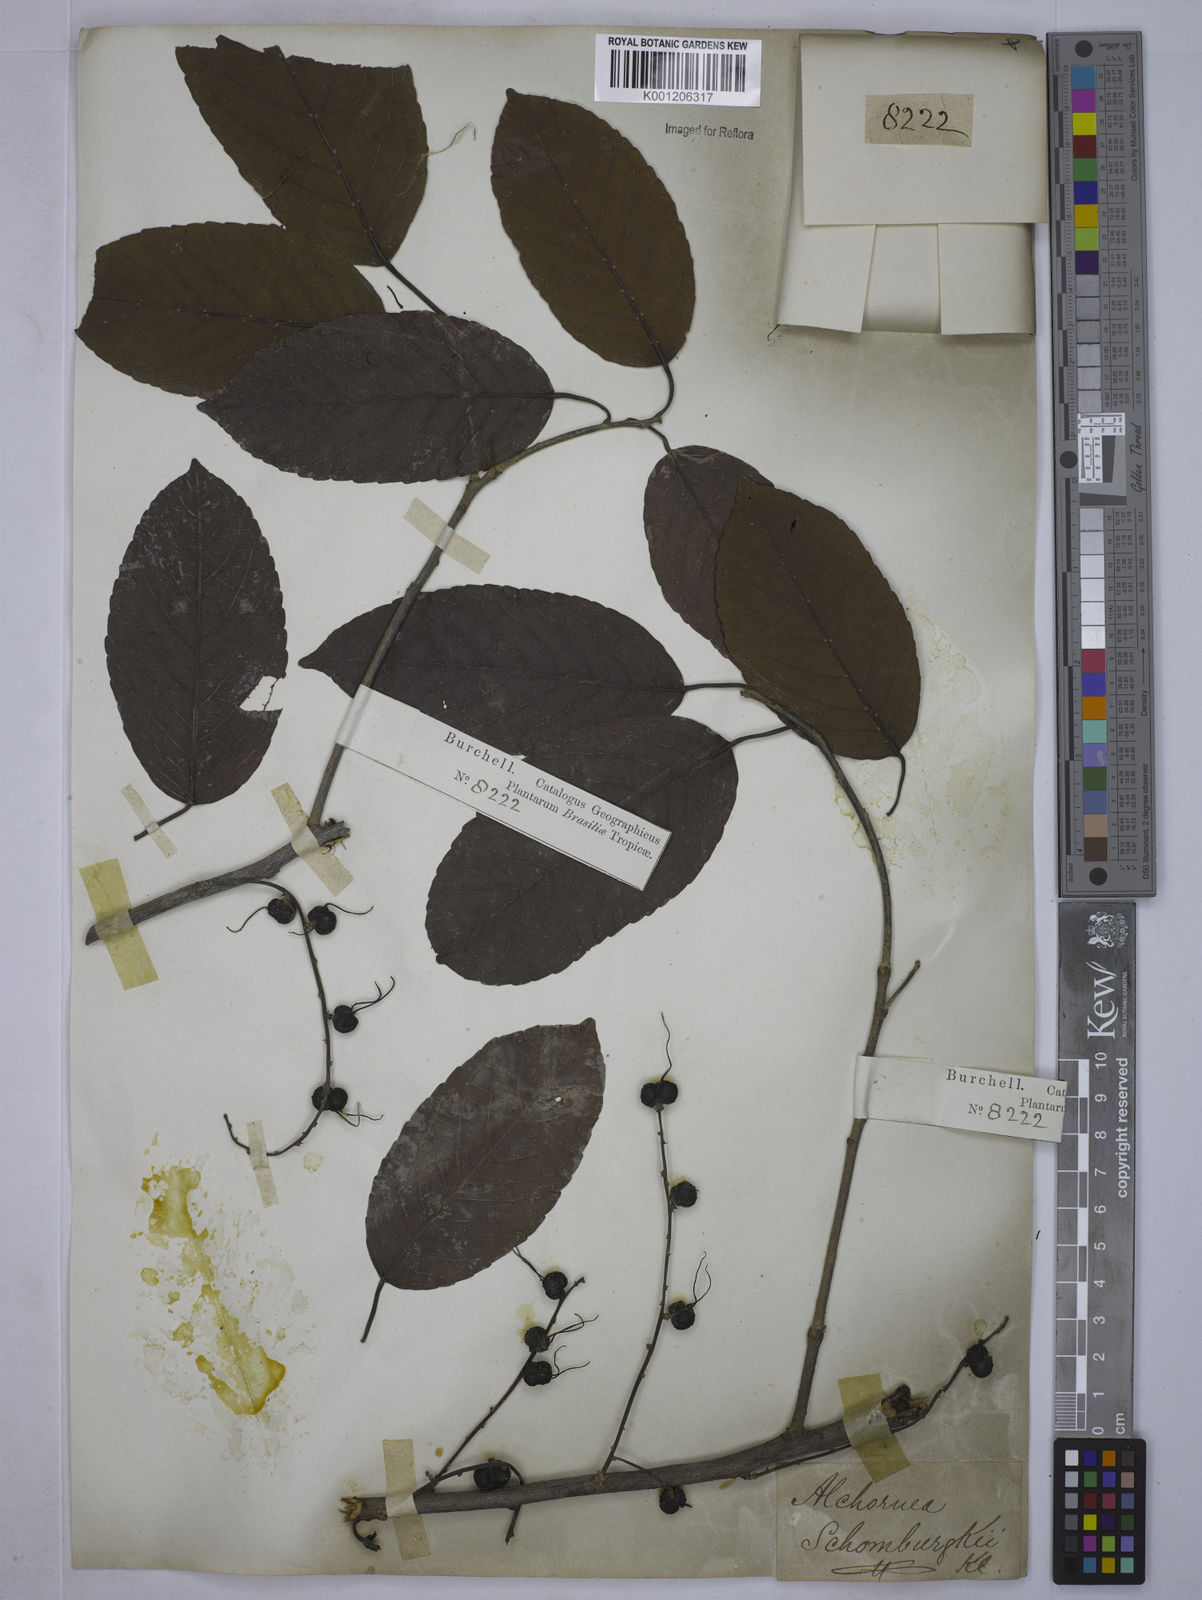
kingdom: Plantae
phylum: Tracheophyta
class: Magnoliopsida
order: Malpighiales
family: Euphorbiaceae
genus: Alchornea
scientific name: Alchornea discolor
